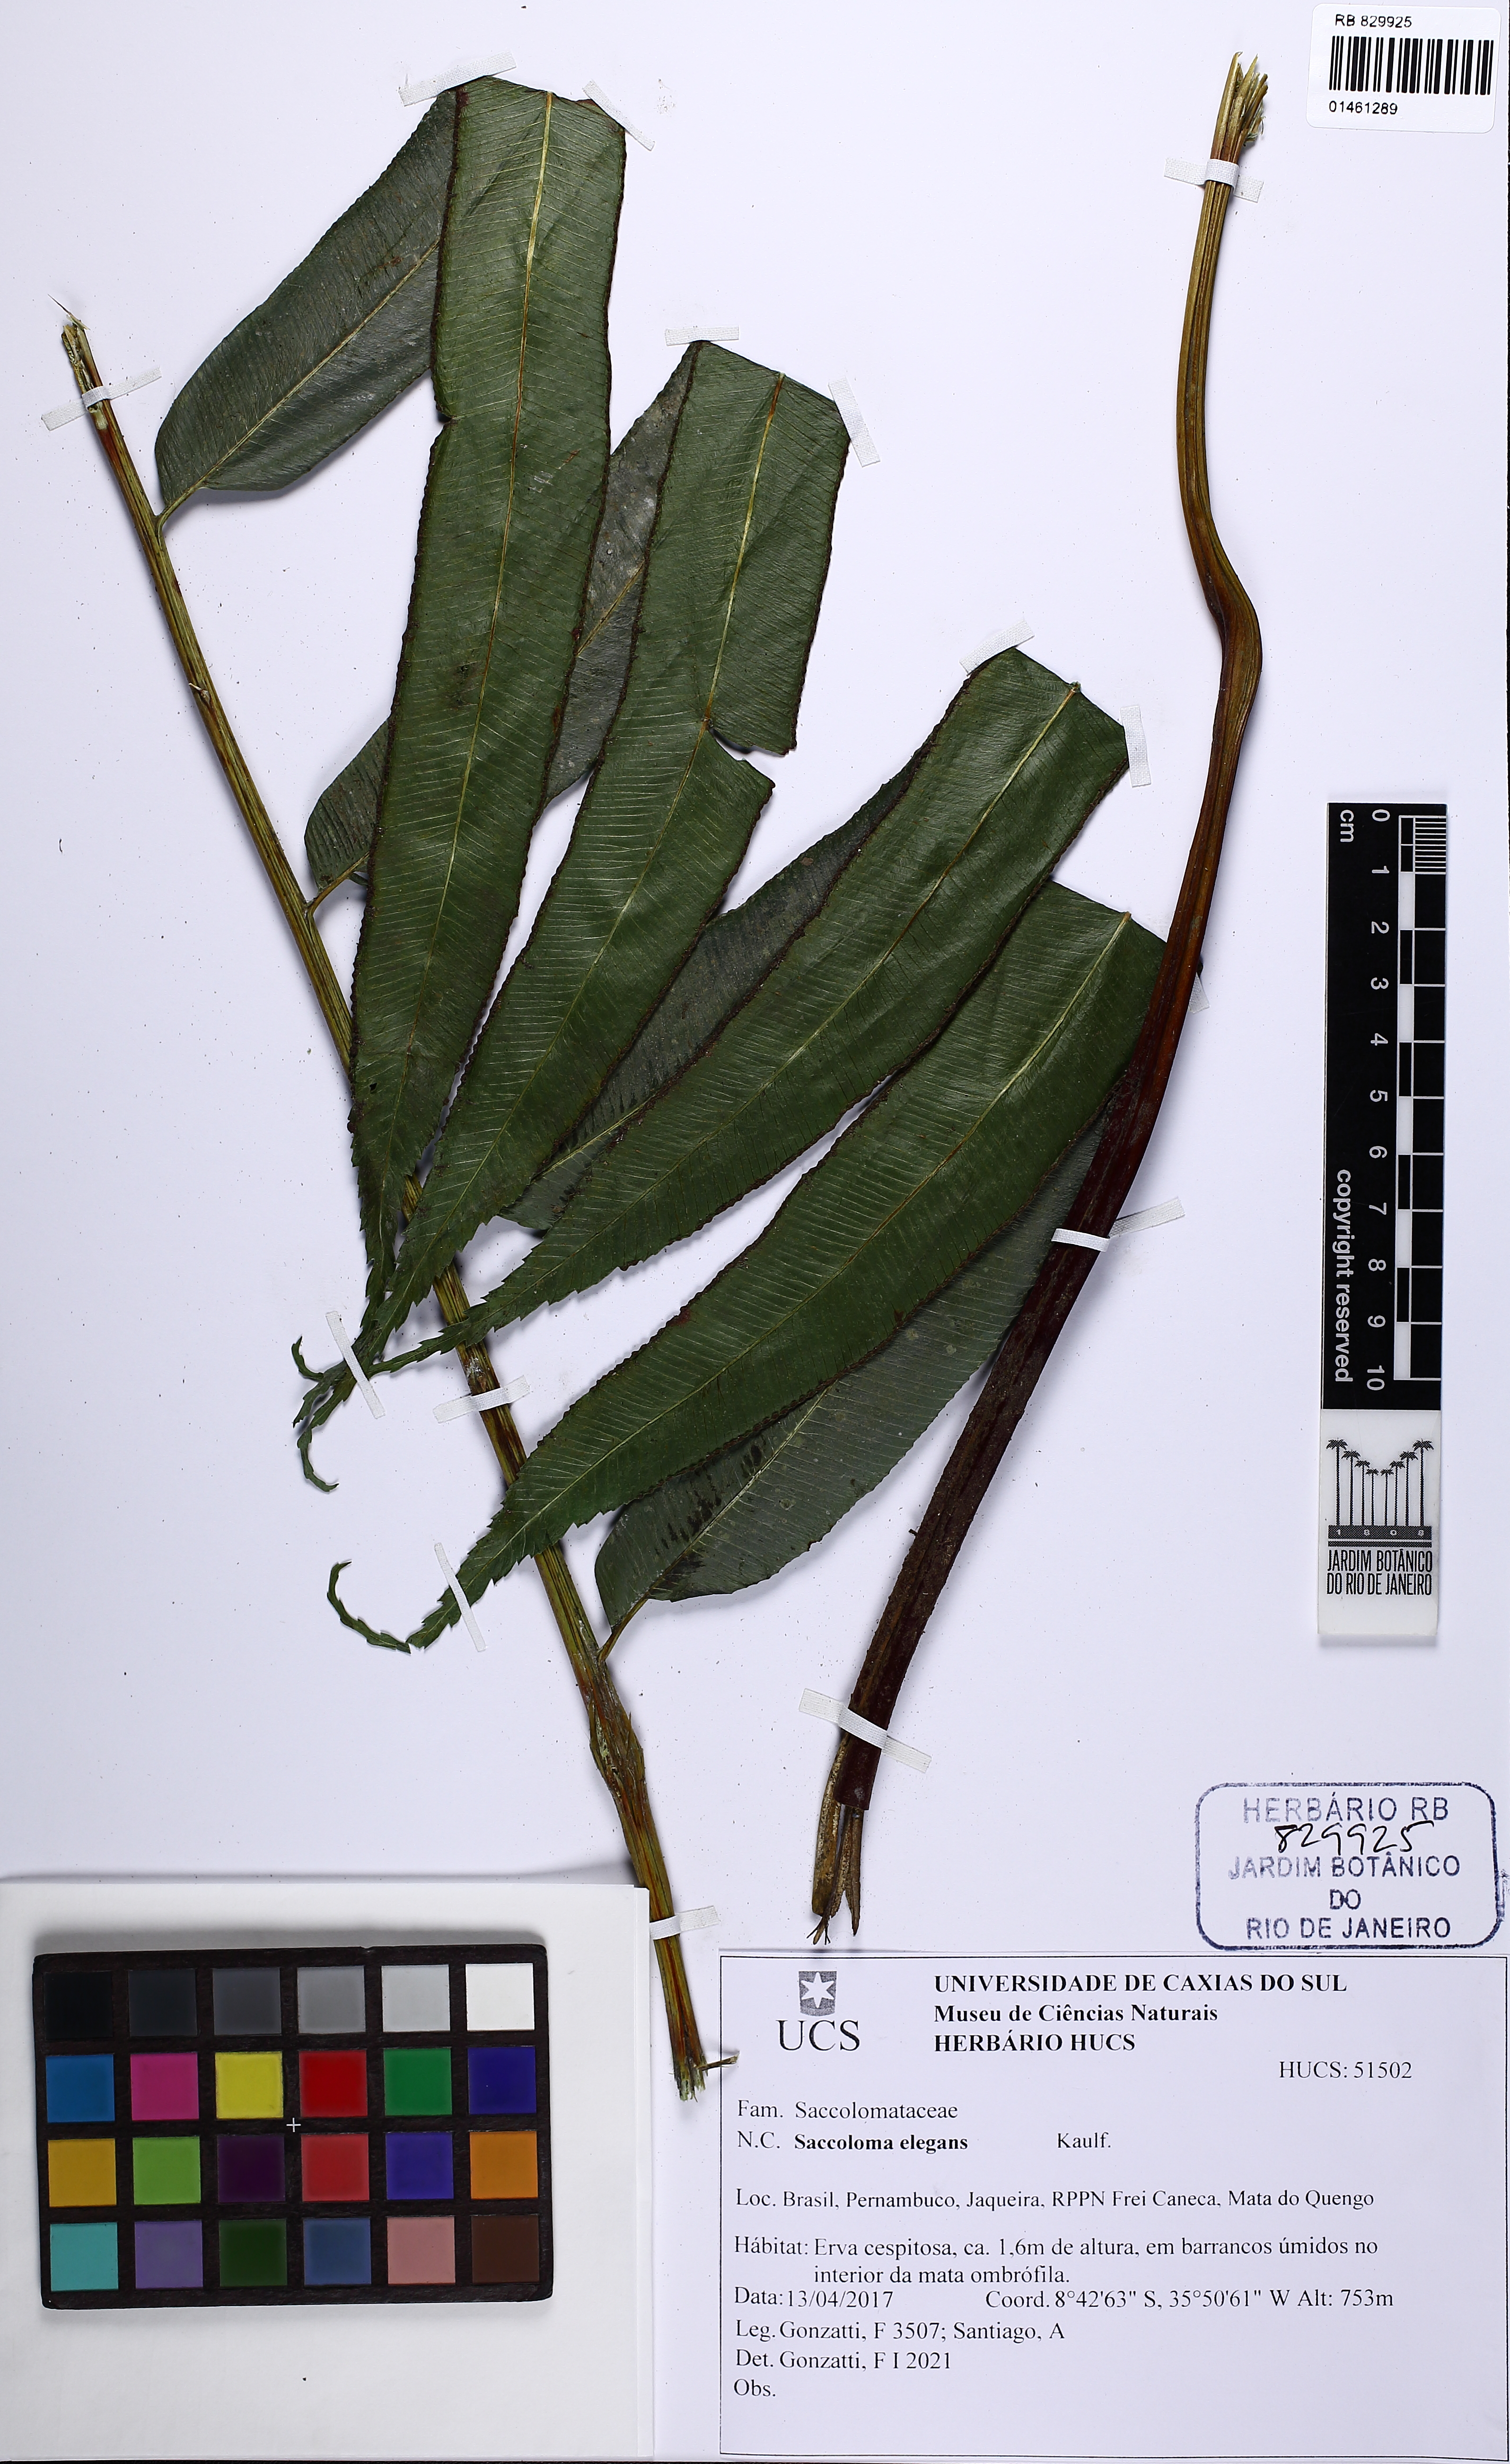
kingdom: Plantae
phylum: Tracheophyta
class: Polypodiopsida
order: Polypodiales
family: Saccolomataceae
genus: Saccoloma
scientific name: Saccoloma elegans
